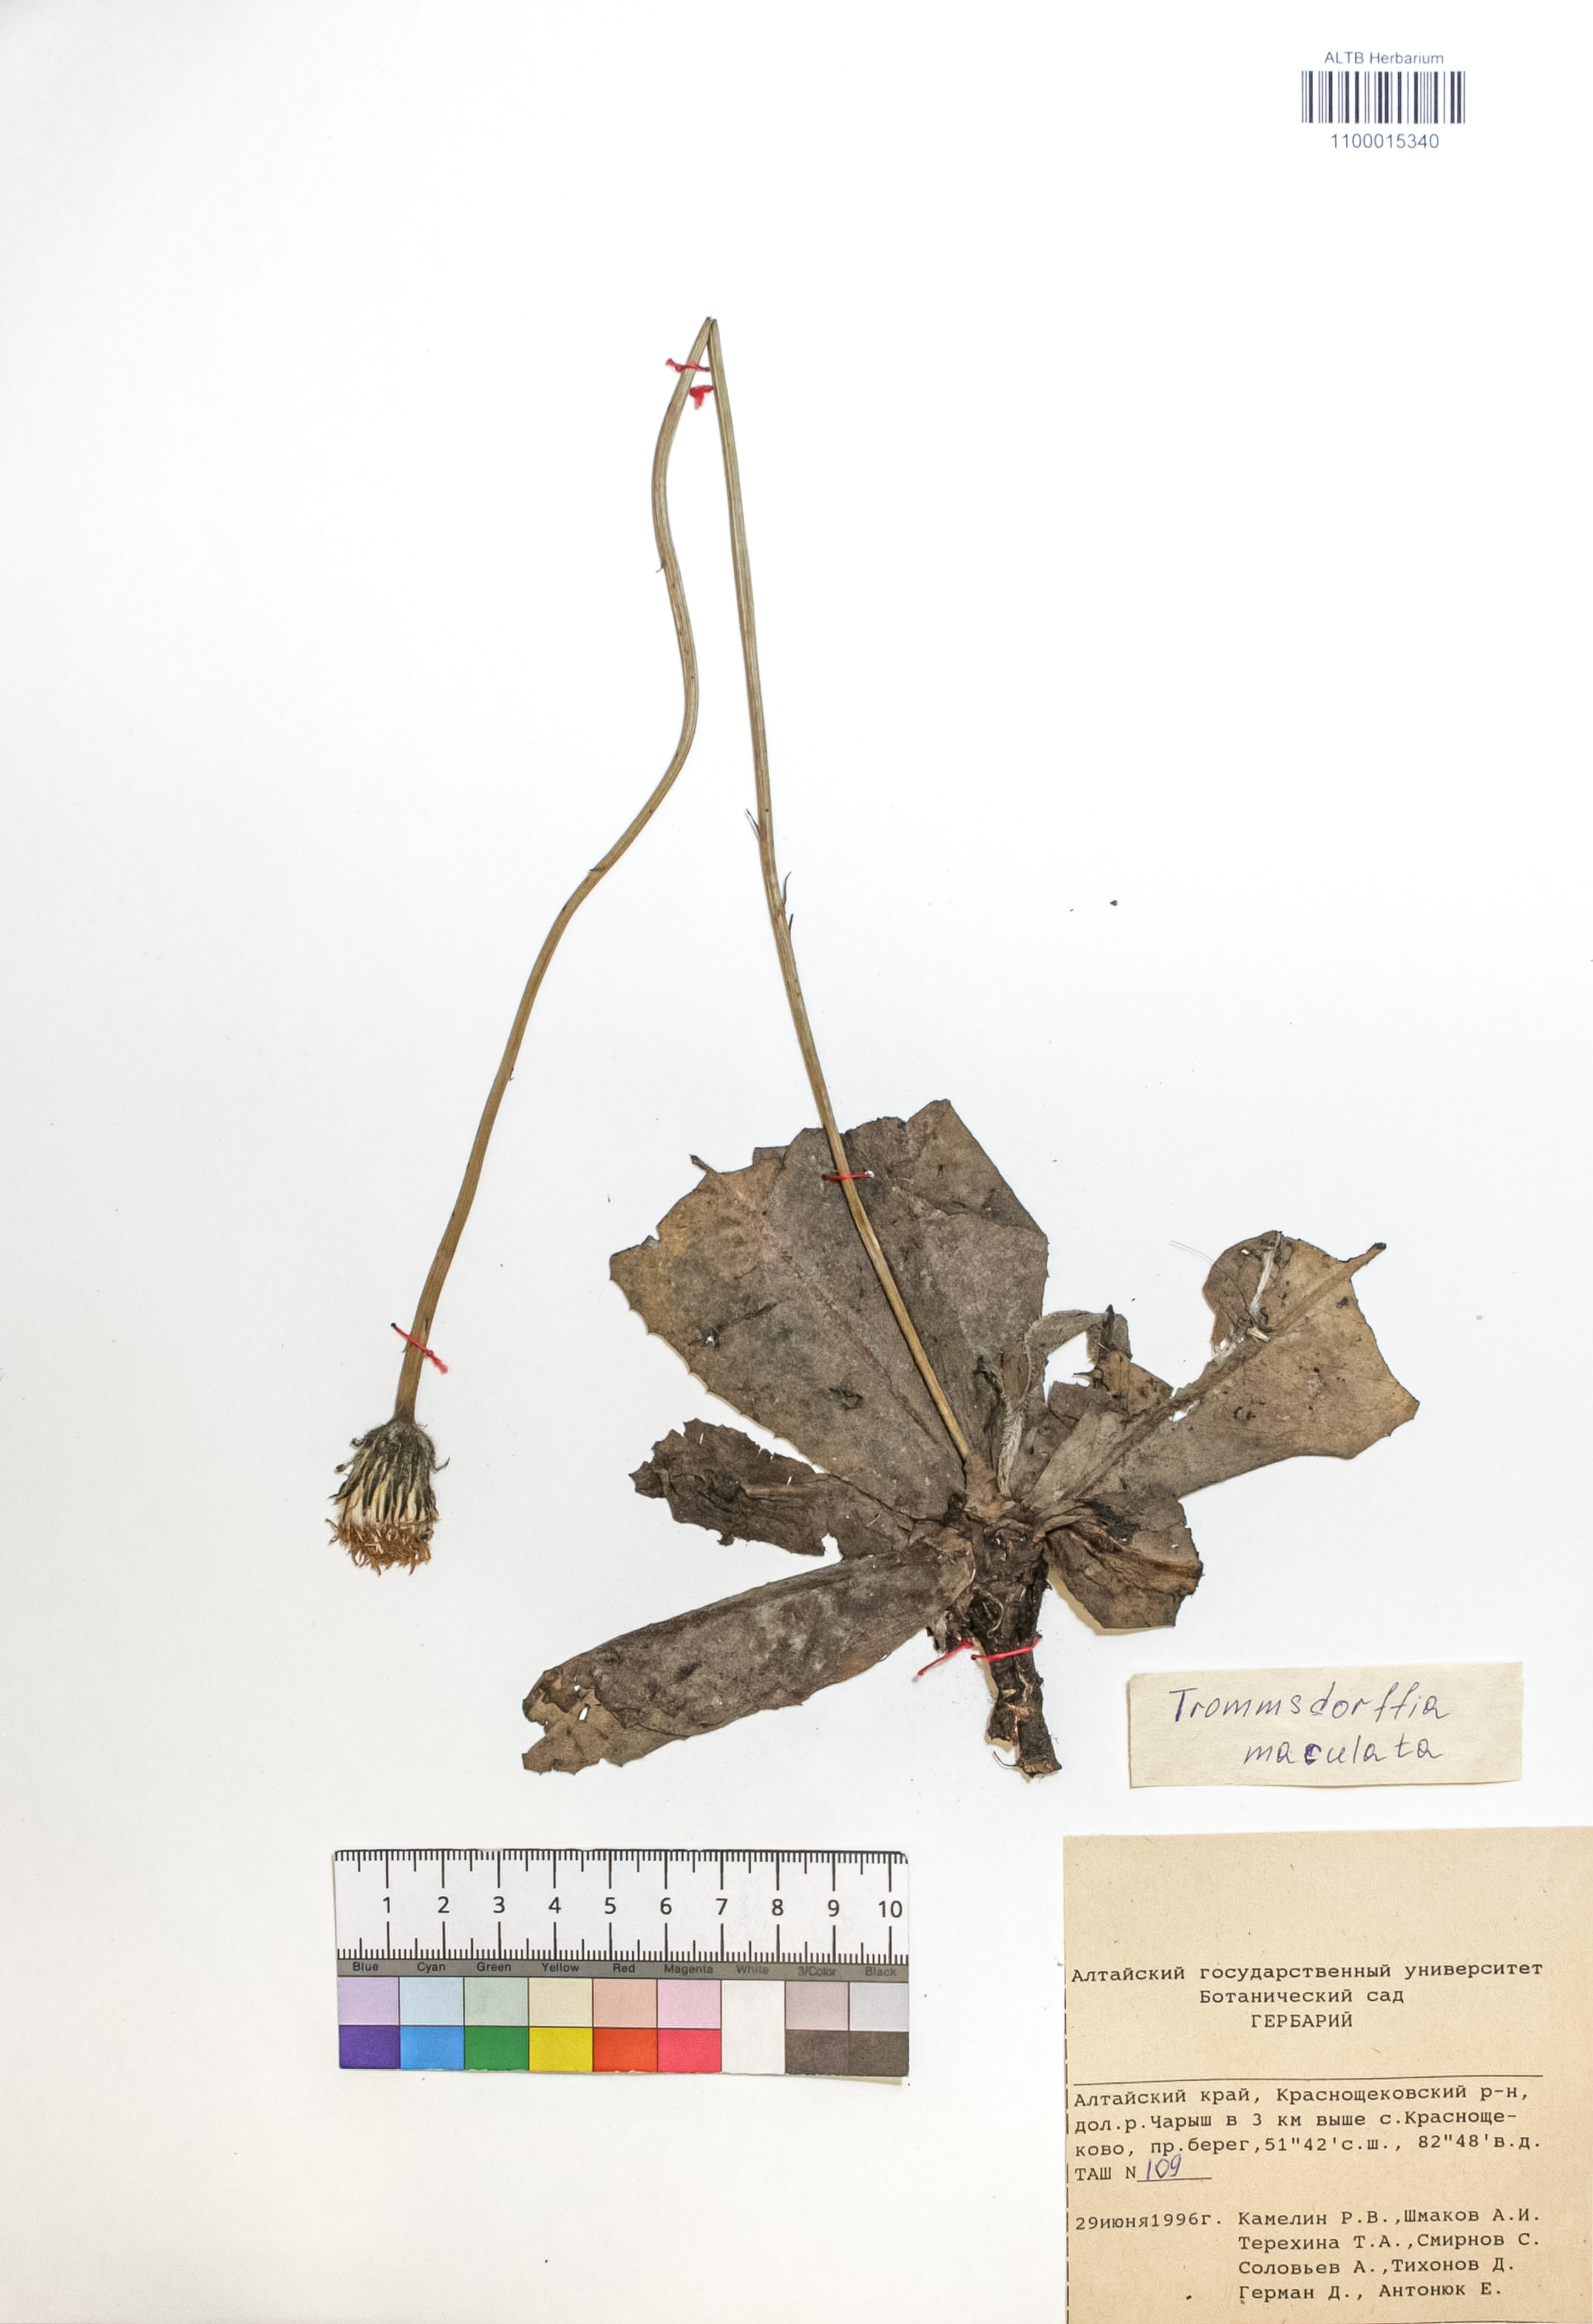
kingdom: Plantae
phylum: Tracheophyta
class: Magnoliopsida
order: Asterales
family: Asteraceae
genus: Trommsdorffia
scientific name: Trommsdorffia maculata
